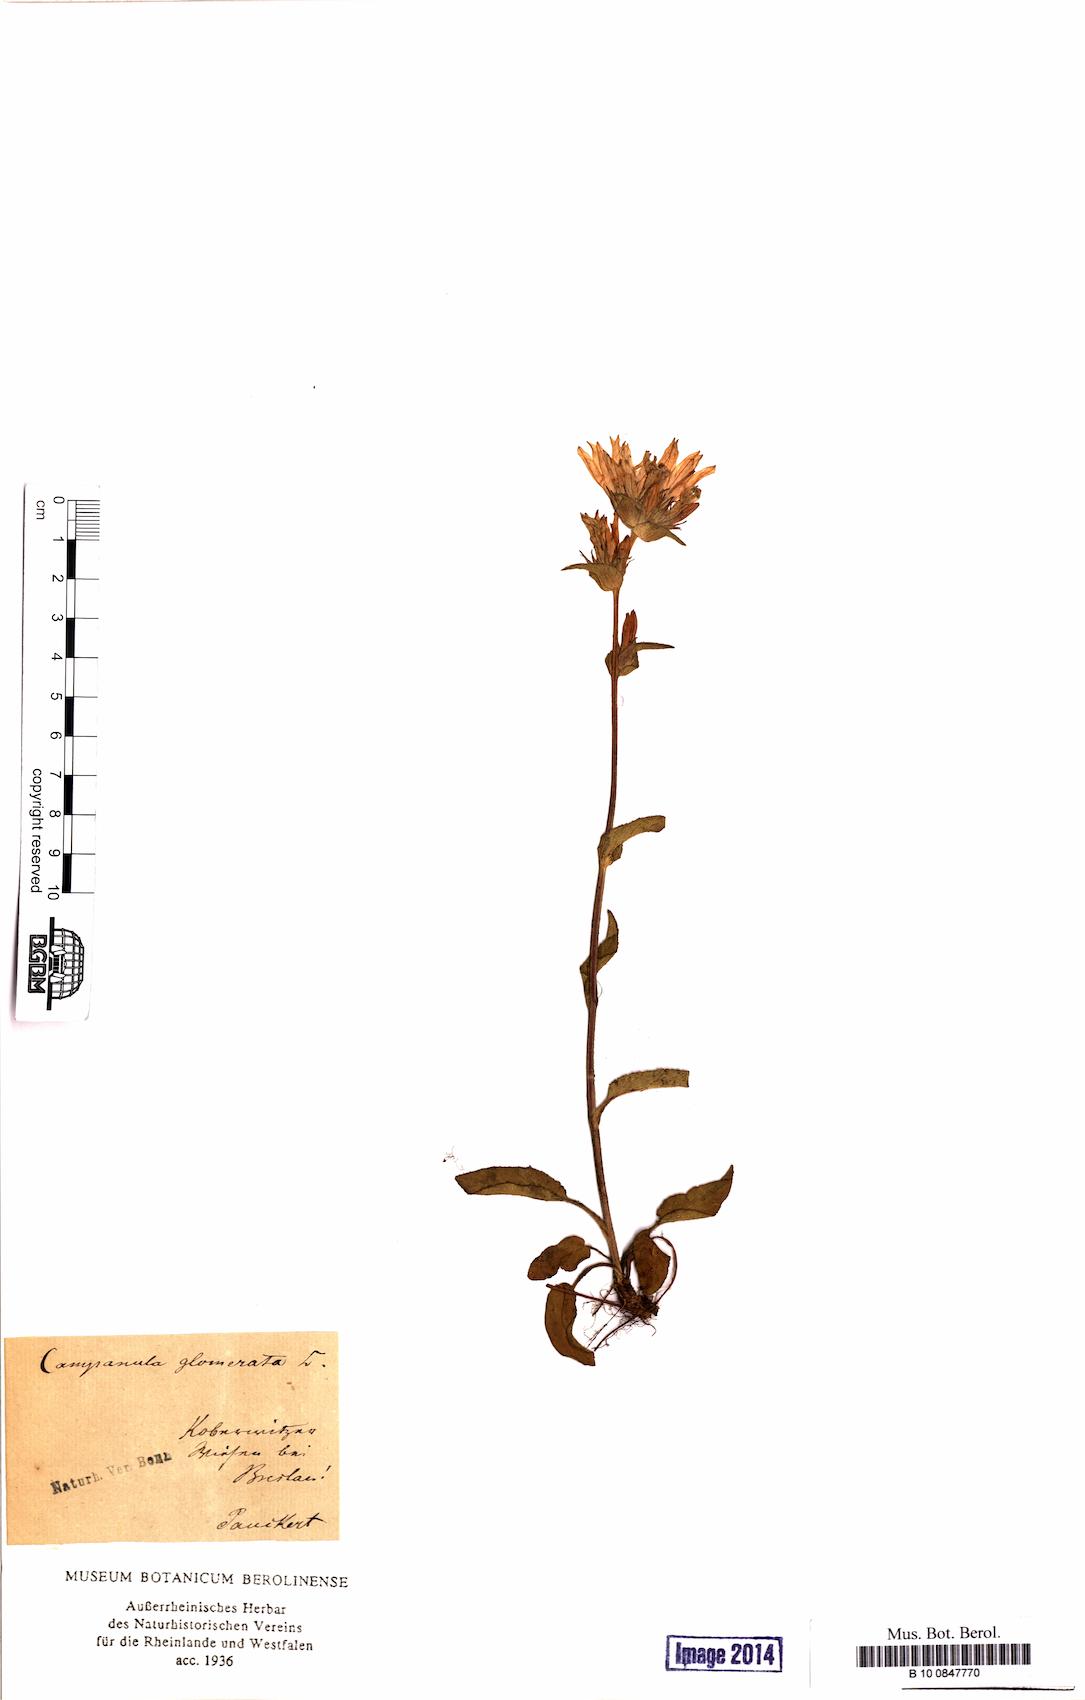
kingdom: Plantae
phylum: Tracheophyta
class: Magnoliopsida
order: Asterales
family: Campanulaceae
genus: Campanula
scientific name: Campanula glomerata
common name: Clustered bellflower
